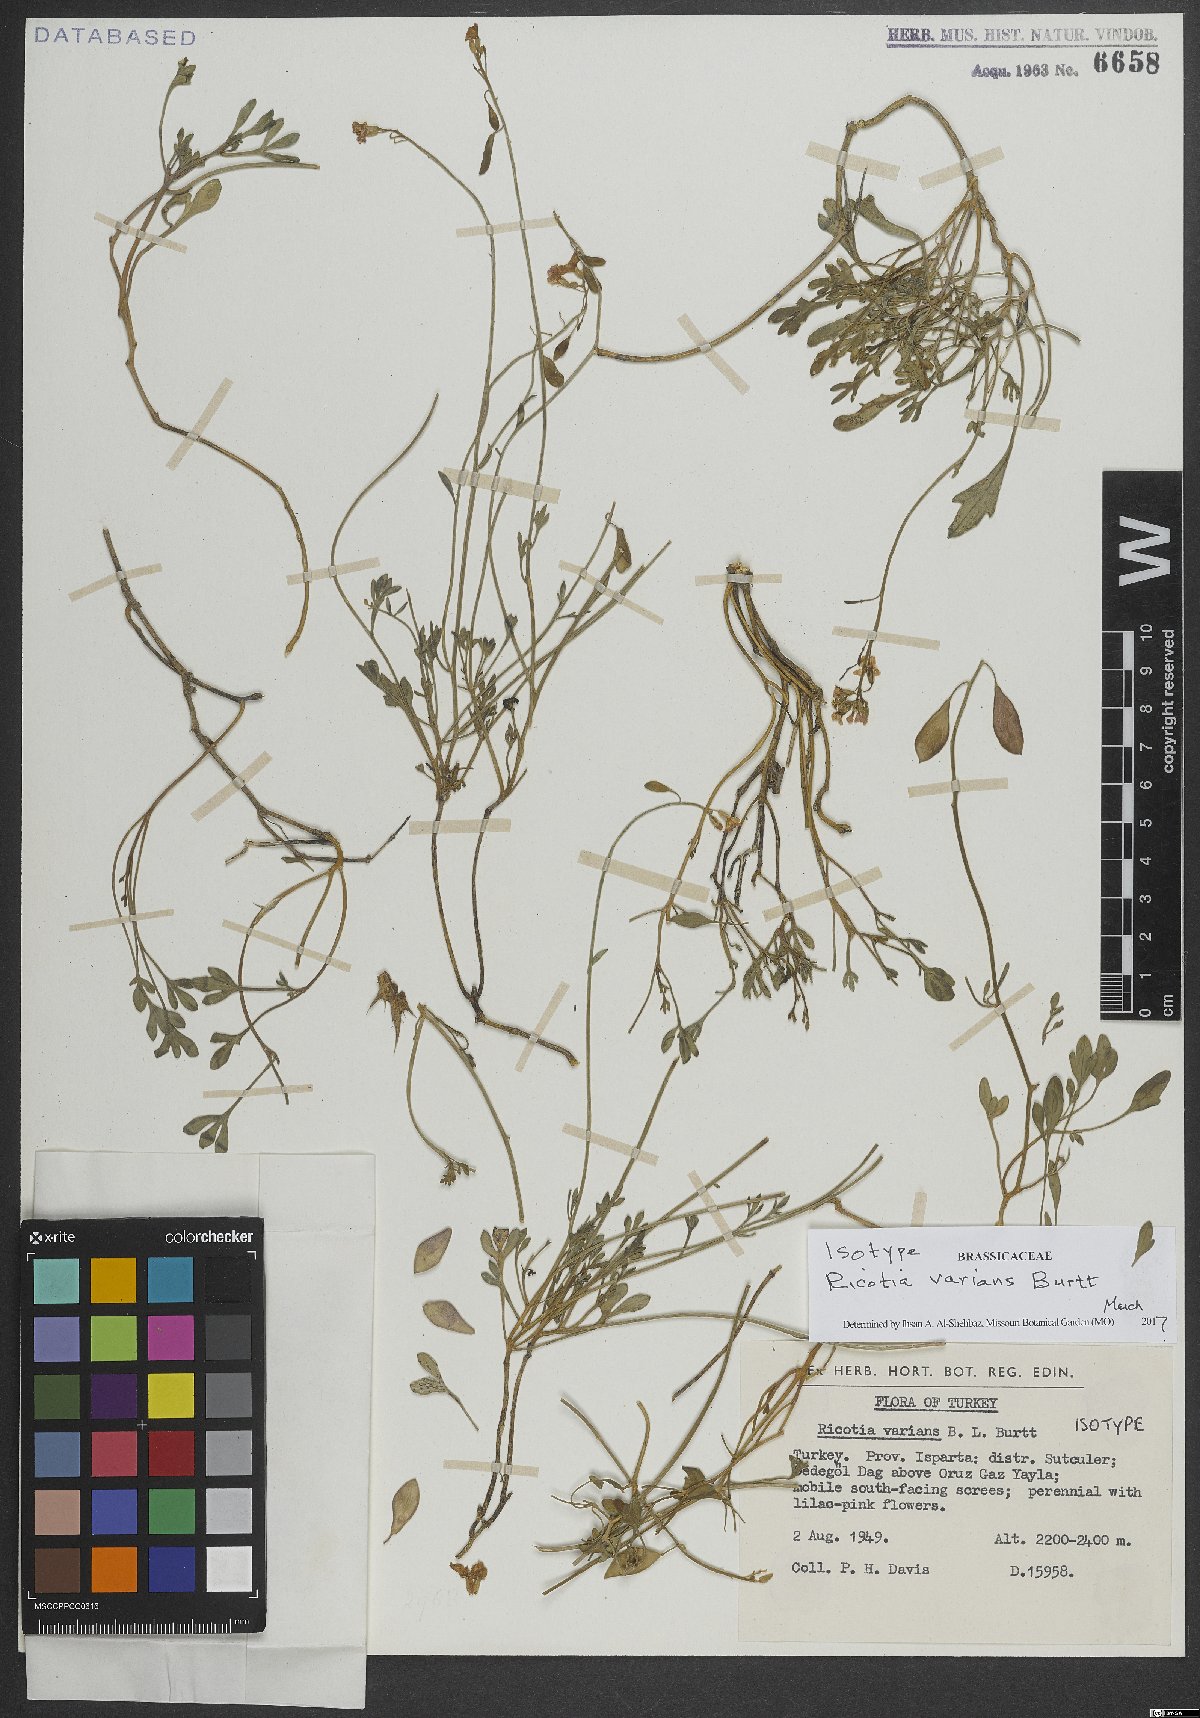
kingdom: Plantae
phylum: Tracheophyta
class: Magnoliopsida
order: Brassicales
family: Brassicaceae
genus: Ricotia
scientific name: Ricotia varians
